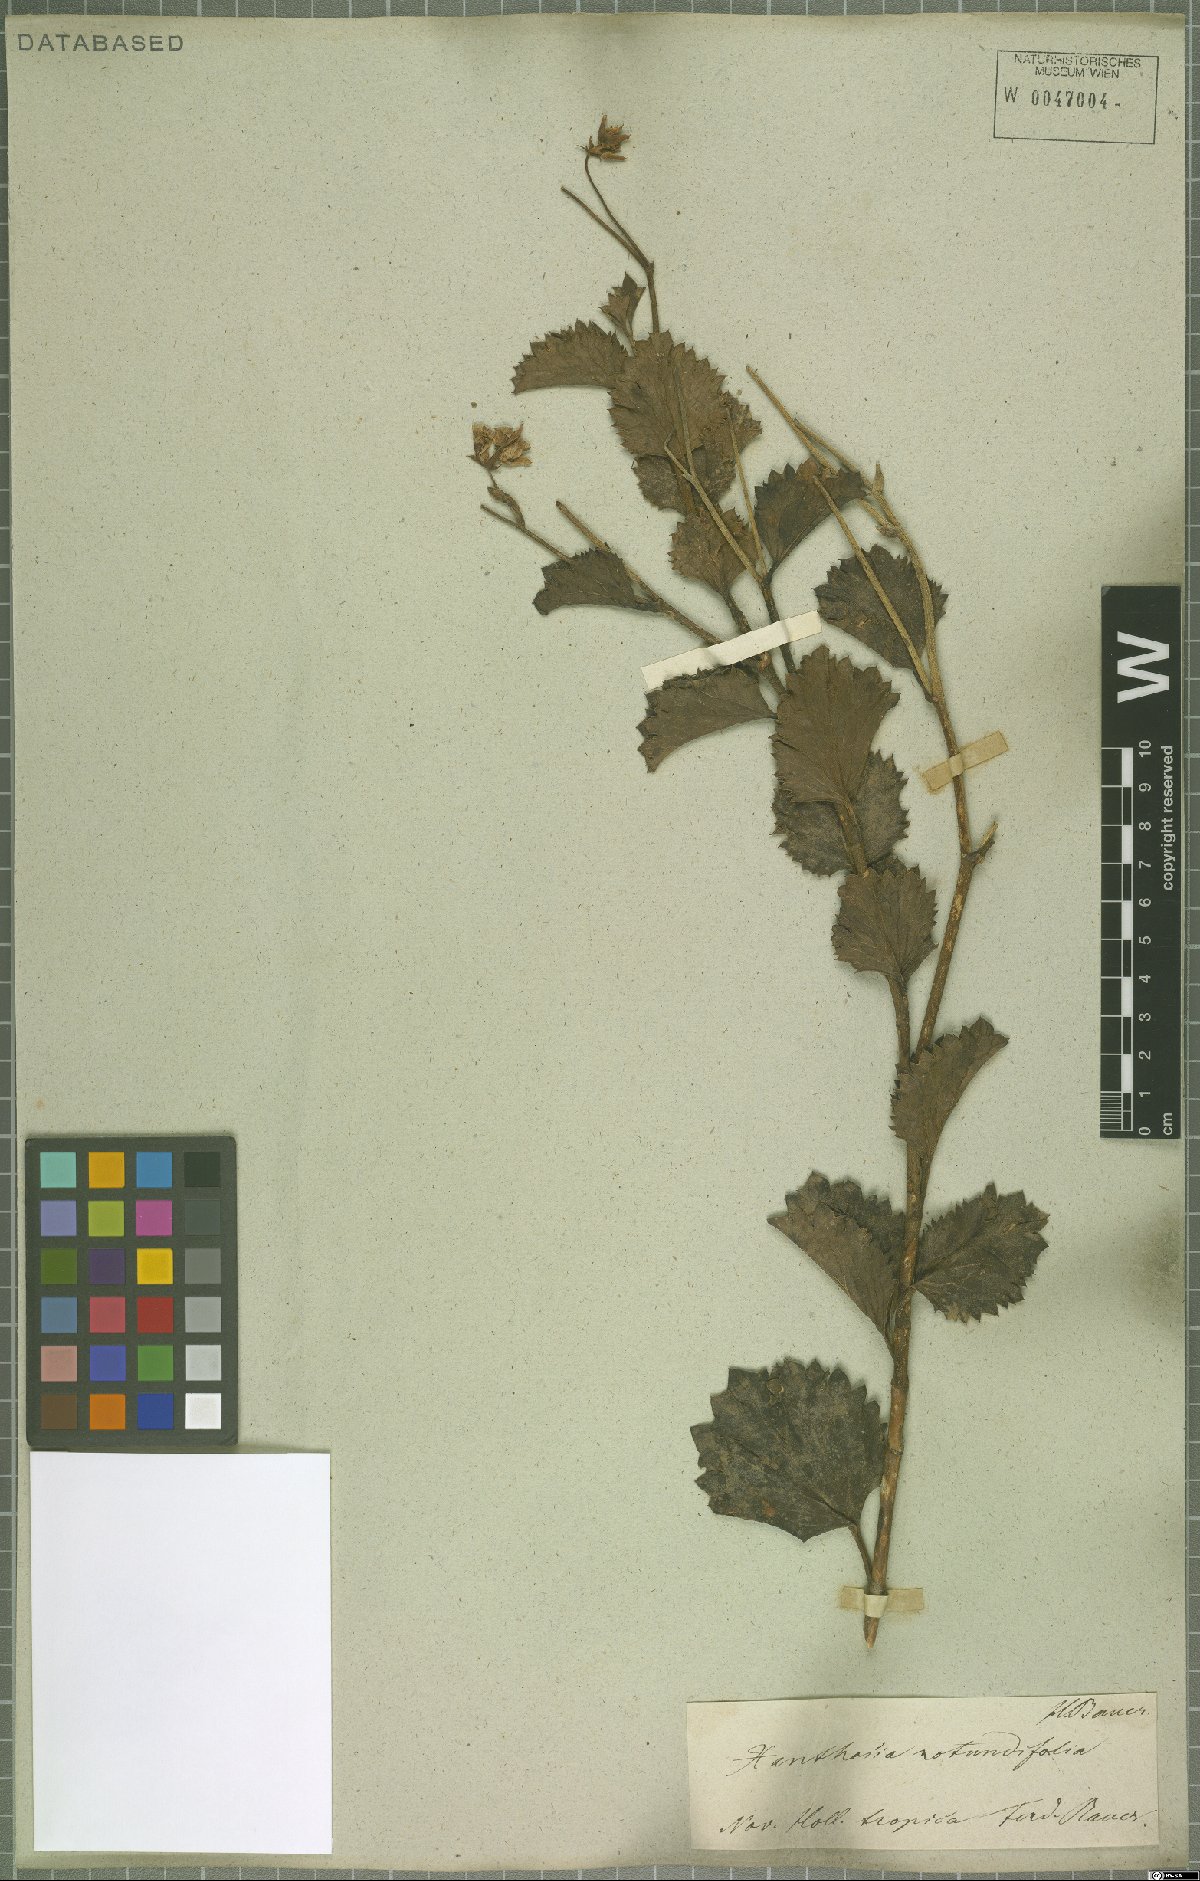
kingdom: Plantae
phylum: Tracheophyta
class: Magnoliopsida
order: Apiales
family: Apiaceae
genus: Xanthosia
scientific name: Xanthosia rotundifolia
